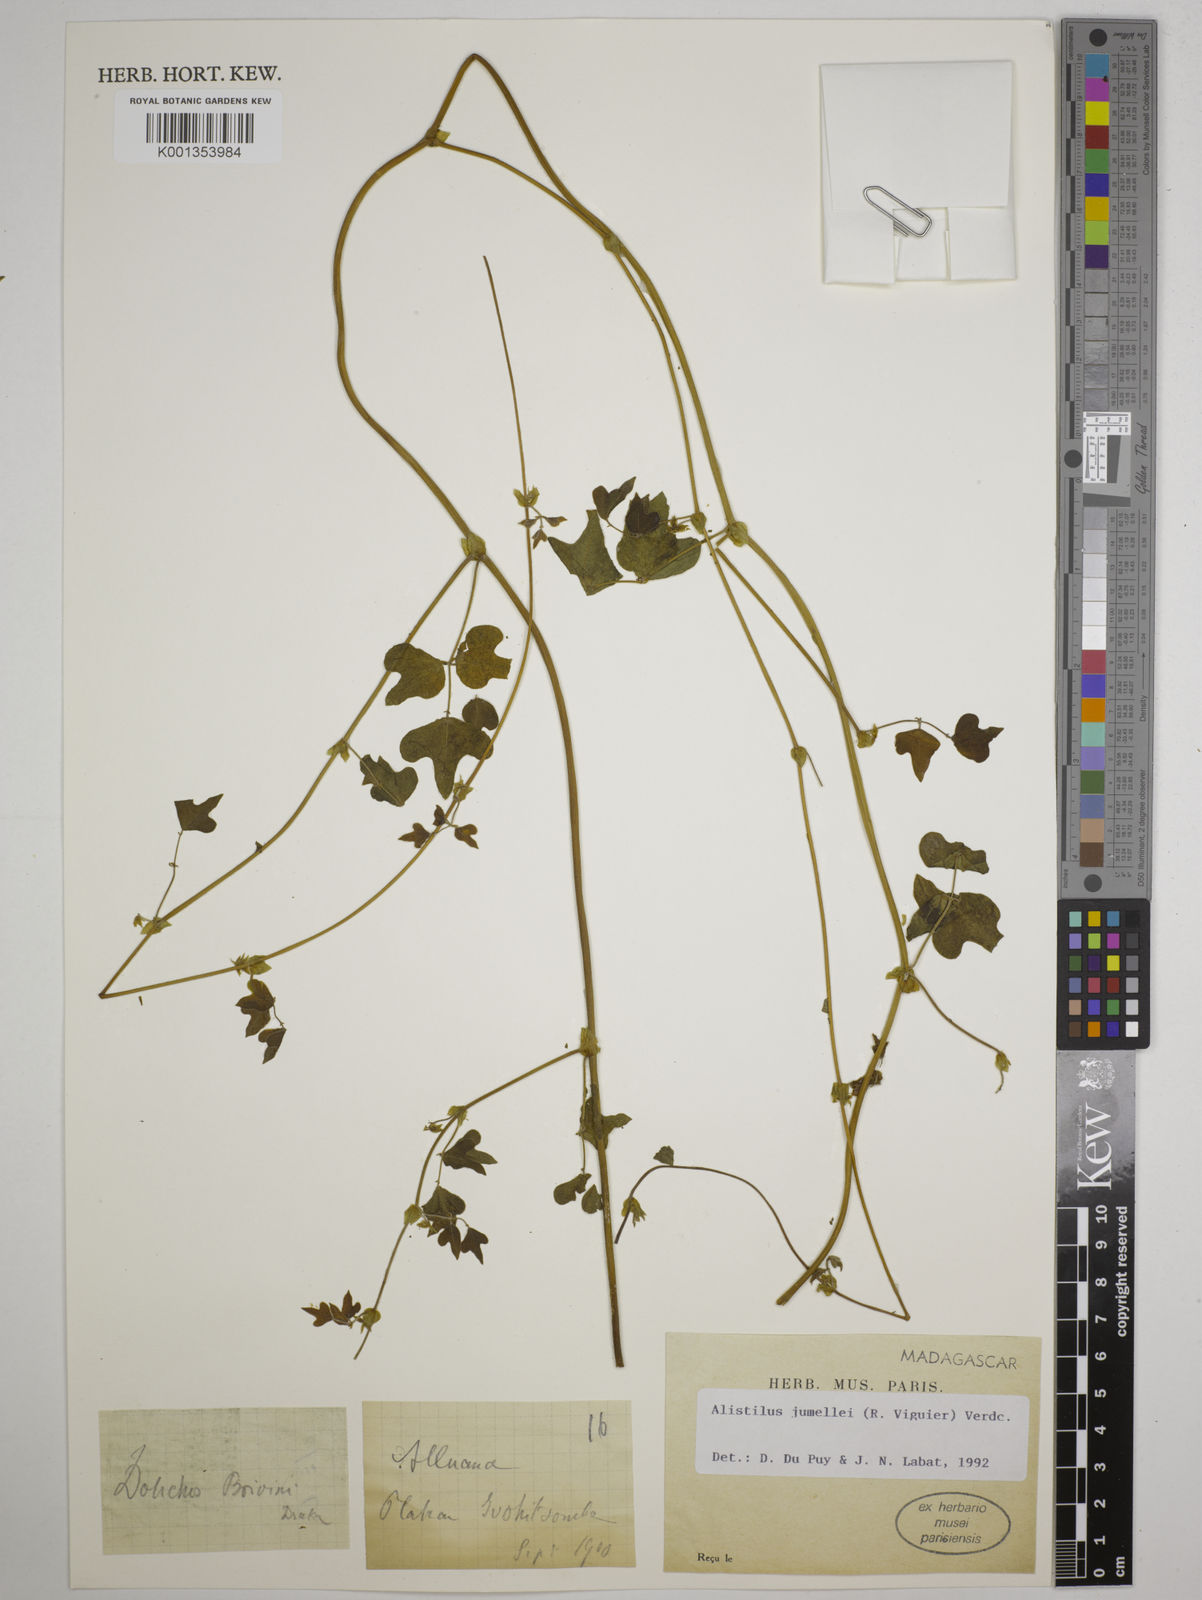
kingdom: Plantae
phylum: Tracheophyta
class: Magnoliopsida
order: Fabales
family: Fabaceae
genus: Alistilus
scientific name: Alistilus jumellei
